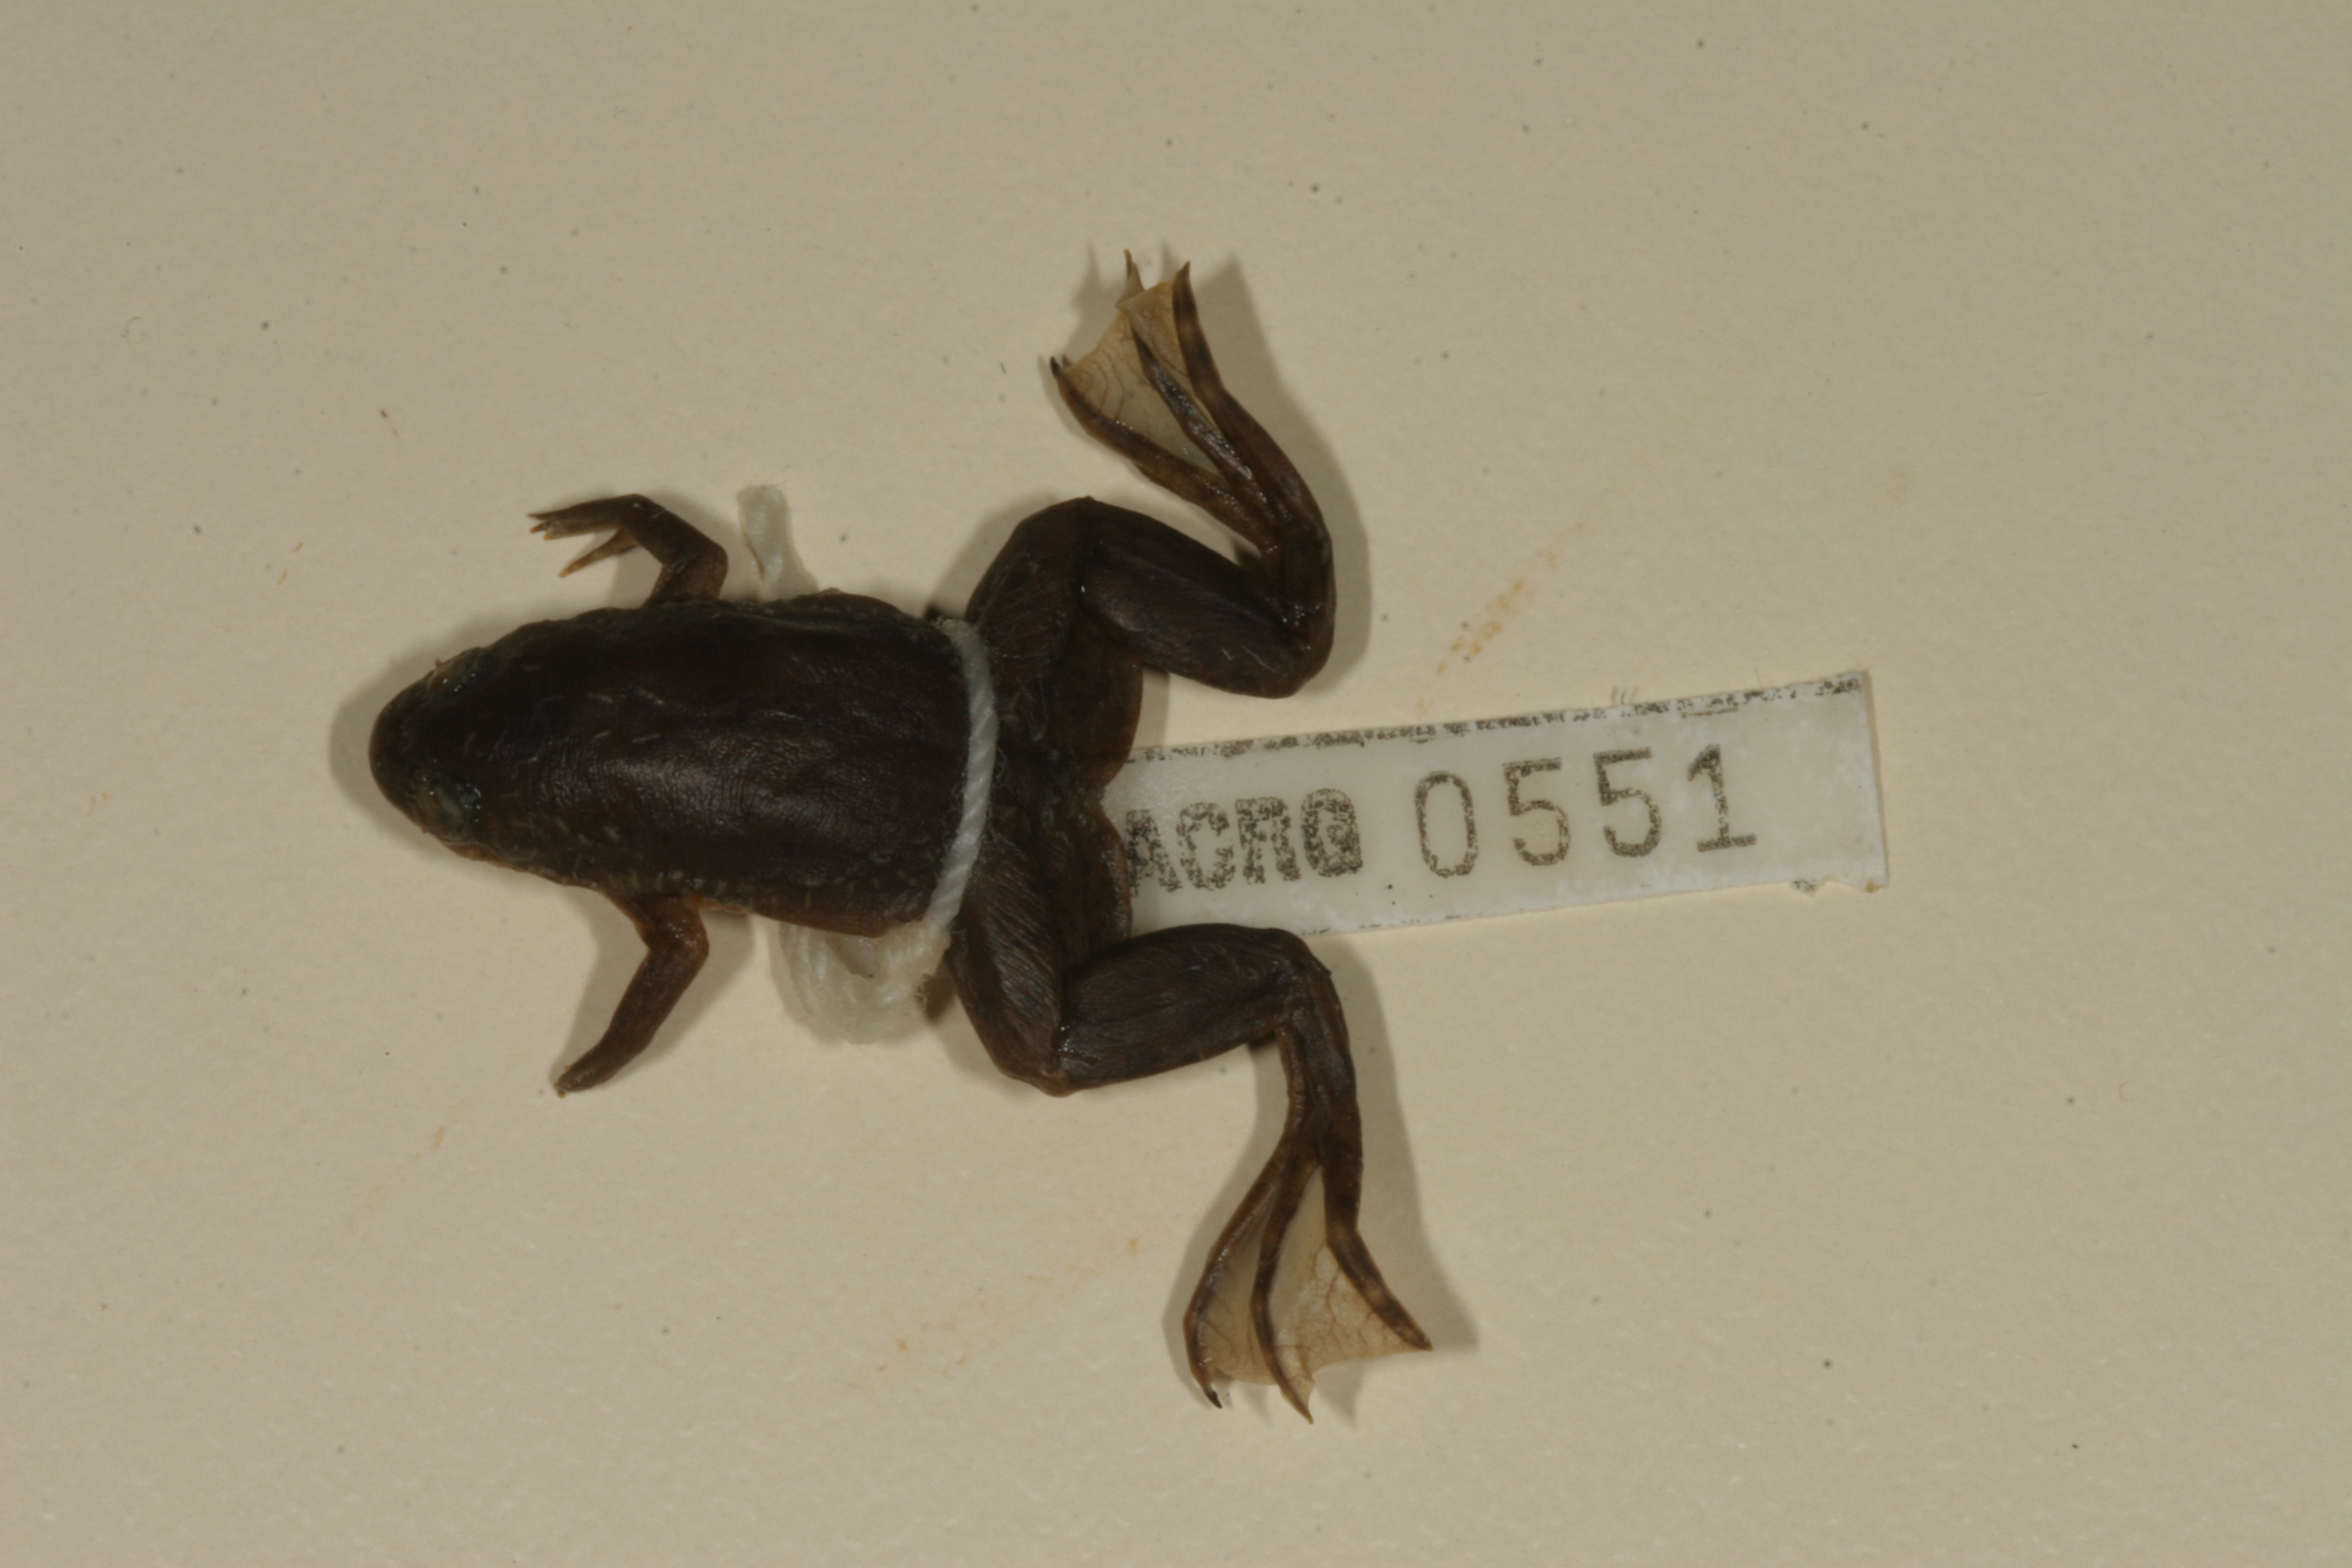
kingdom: Animalia
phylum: Chordata
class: Amphibia
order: Anura
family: Pipidae
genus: Xenopus
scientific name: Xenopus laevis
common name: African clawed frog
